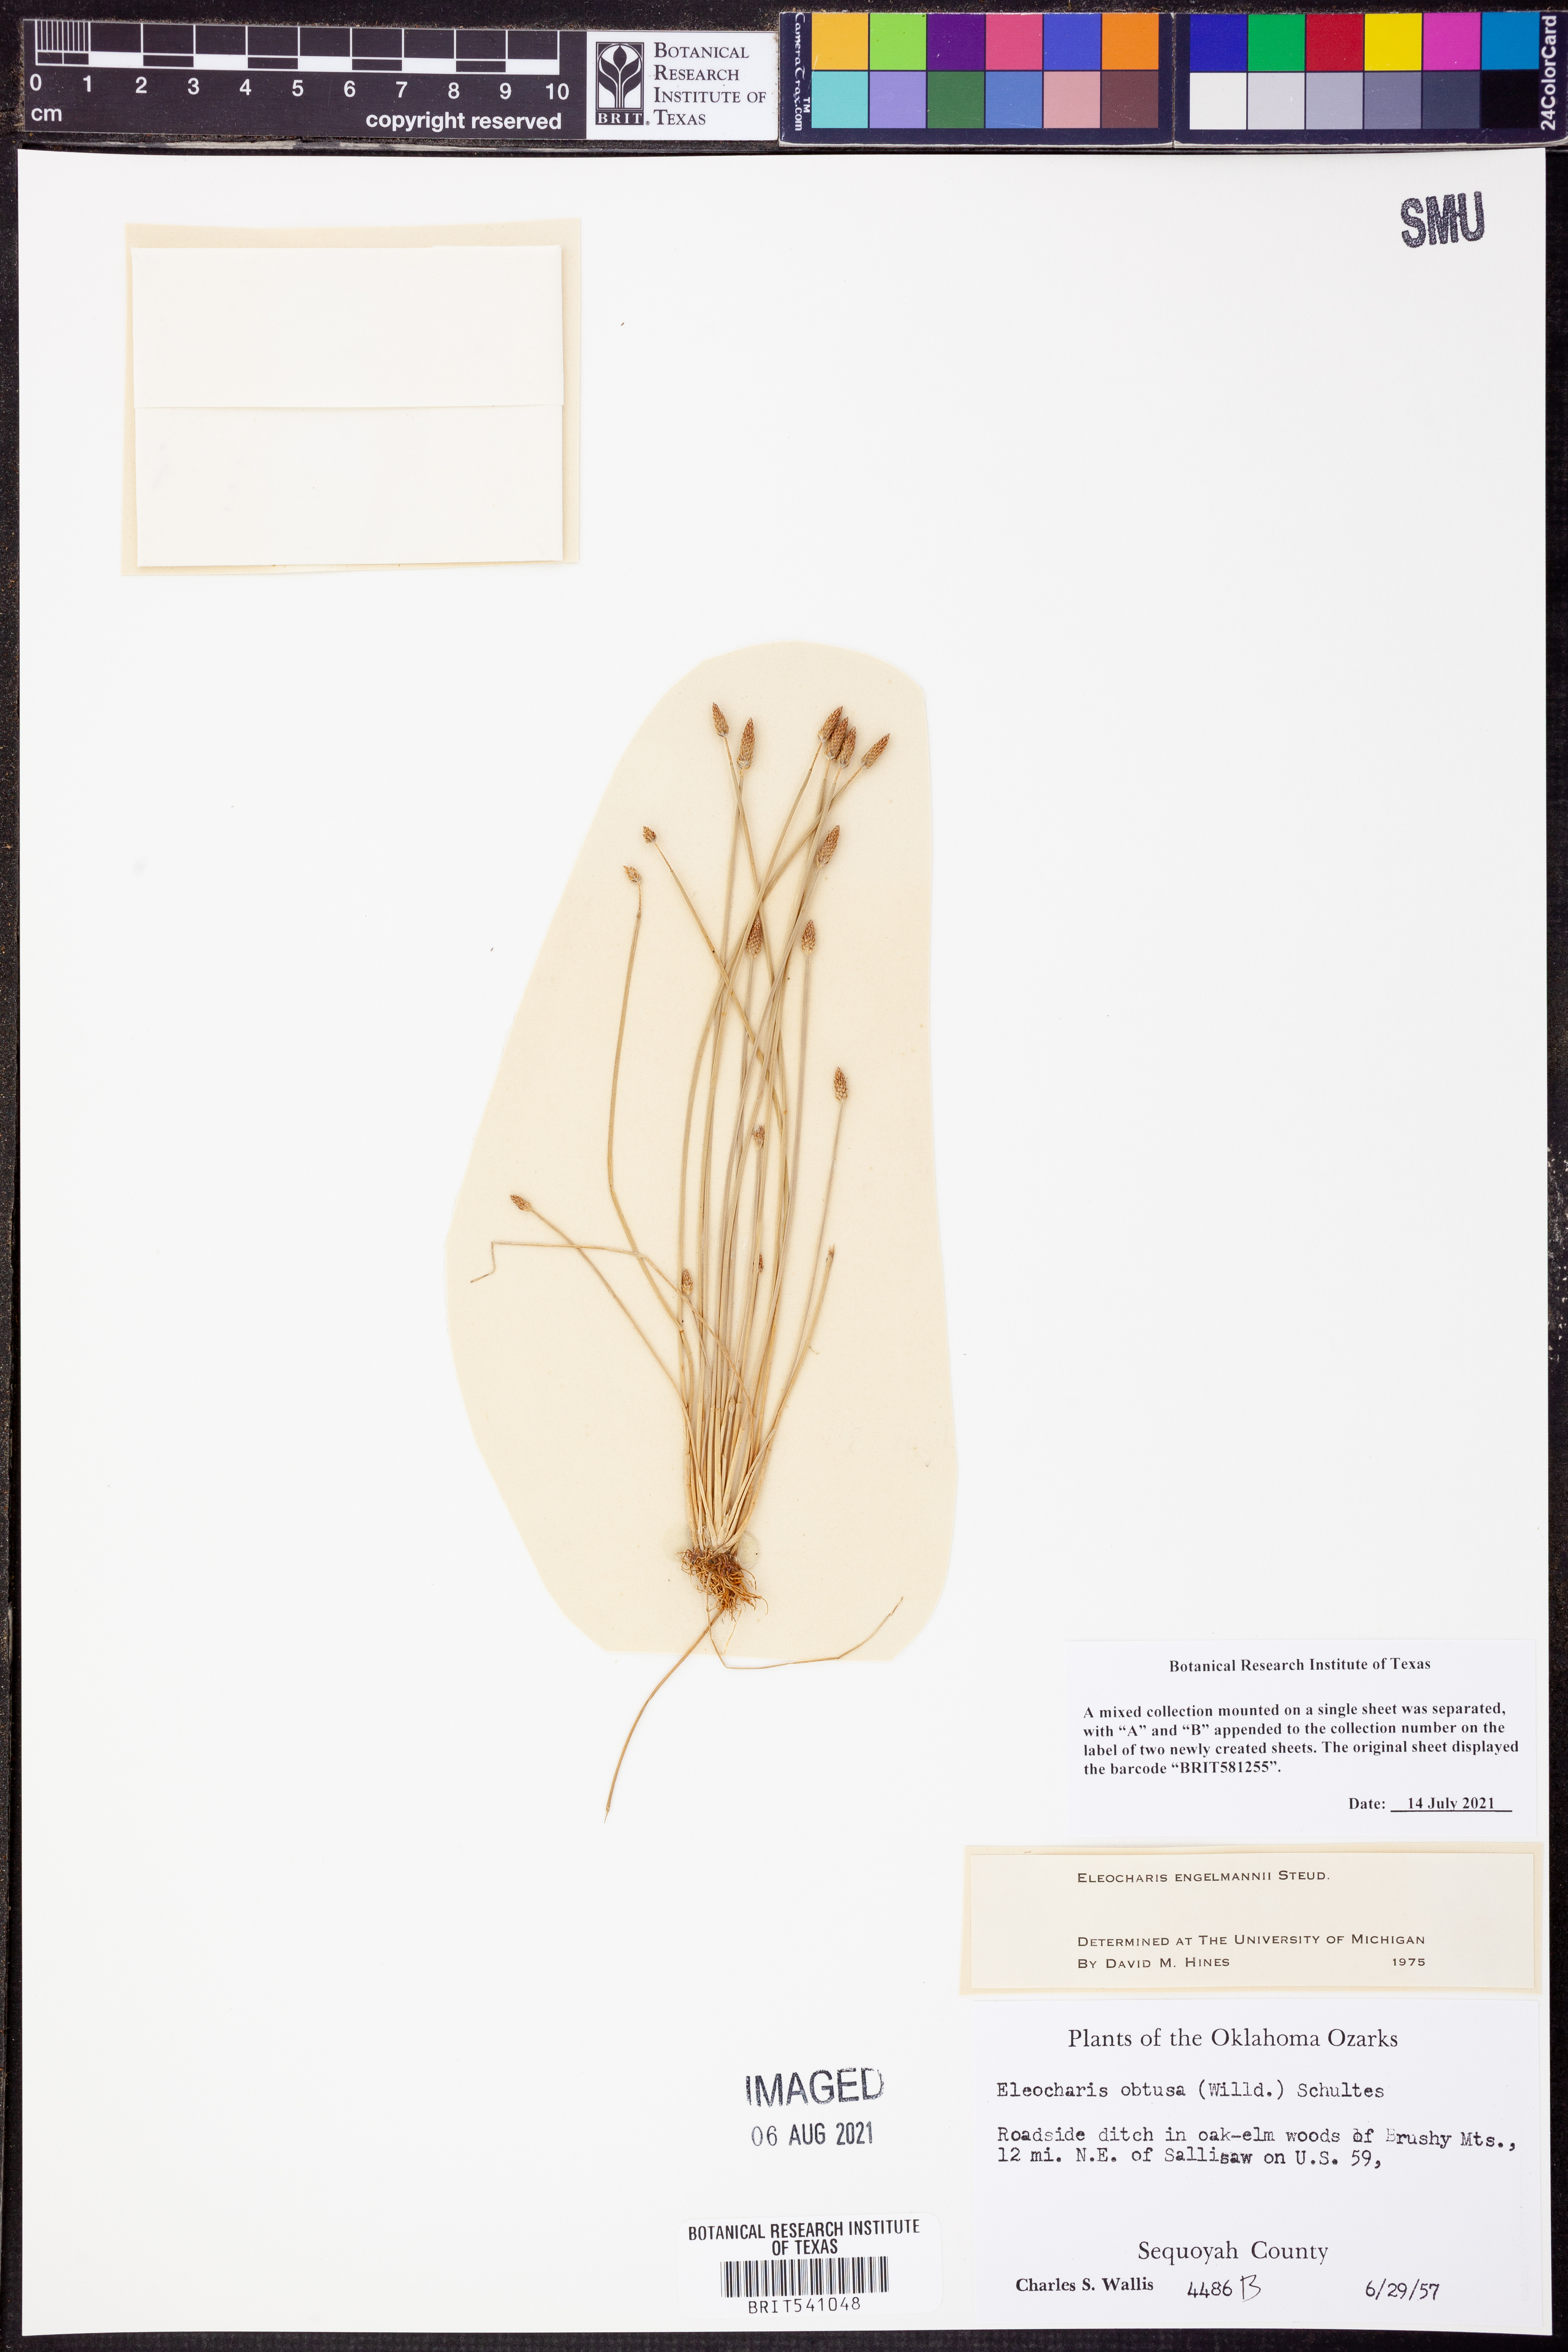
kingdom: Plantae
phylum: Tracheophyta
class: Liliopsida
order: Poales
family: Cyperaceae
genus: Eleocharis
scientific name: Eleocharis engelmannii
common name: Engelmann's spikerush
